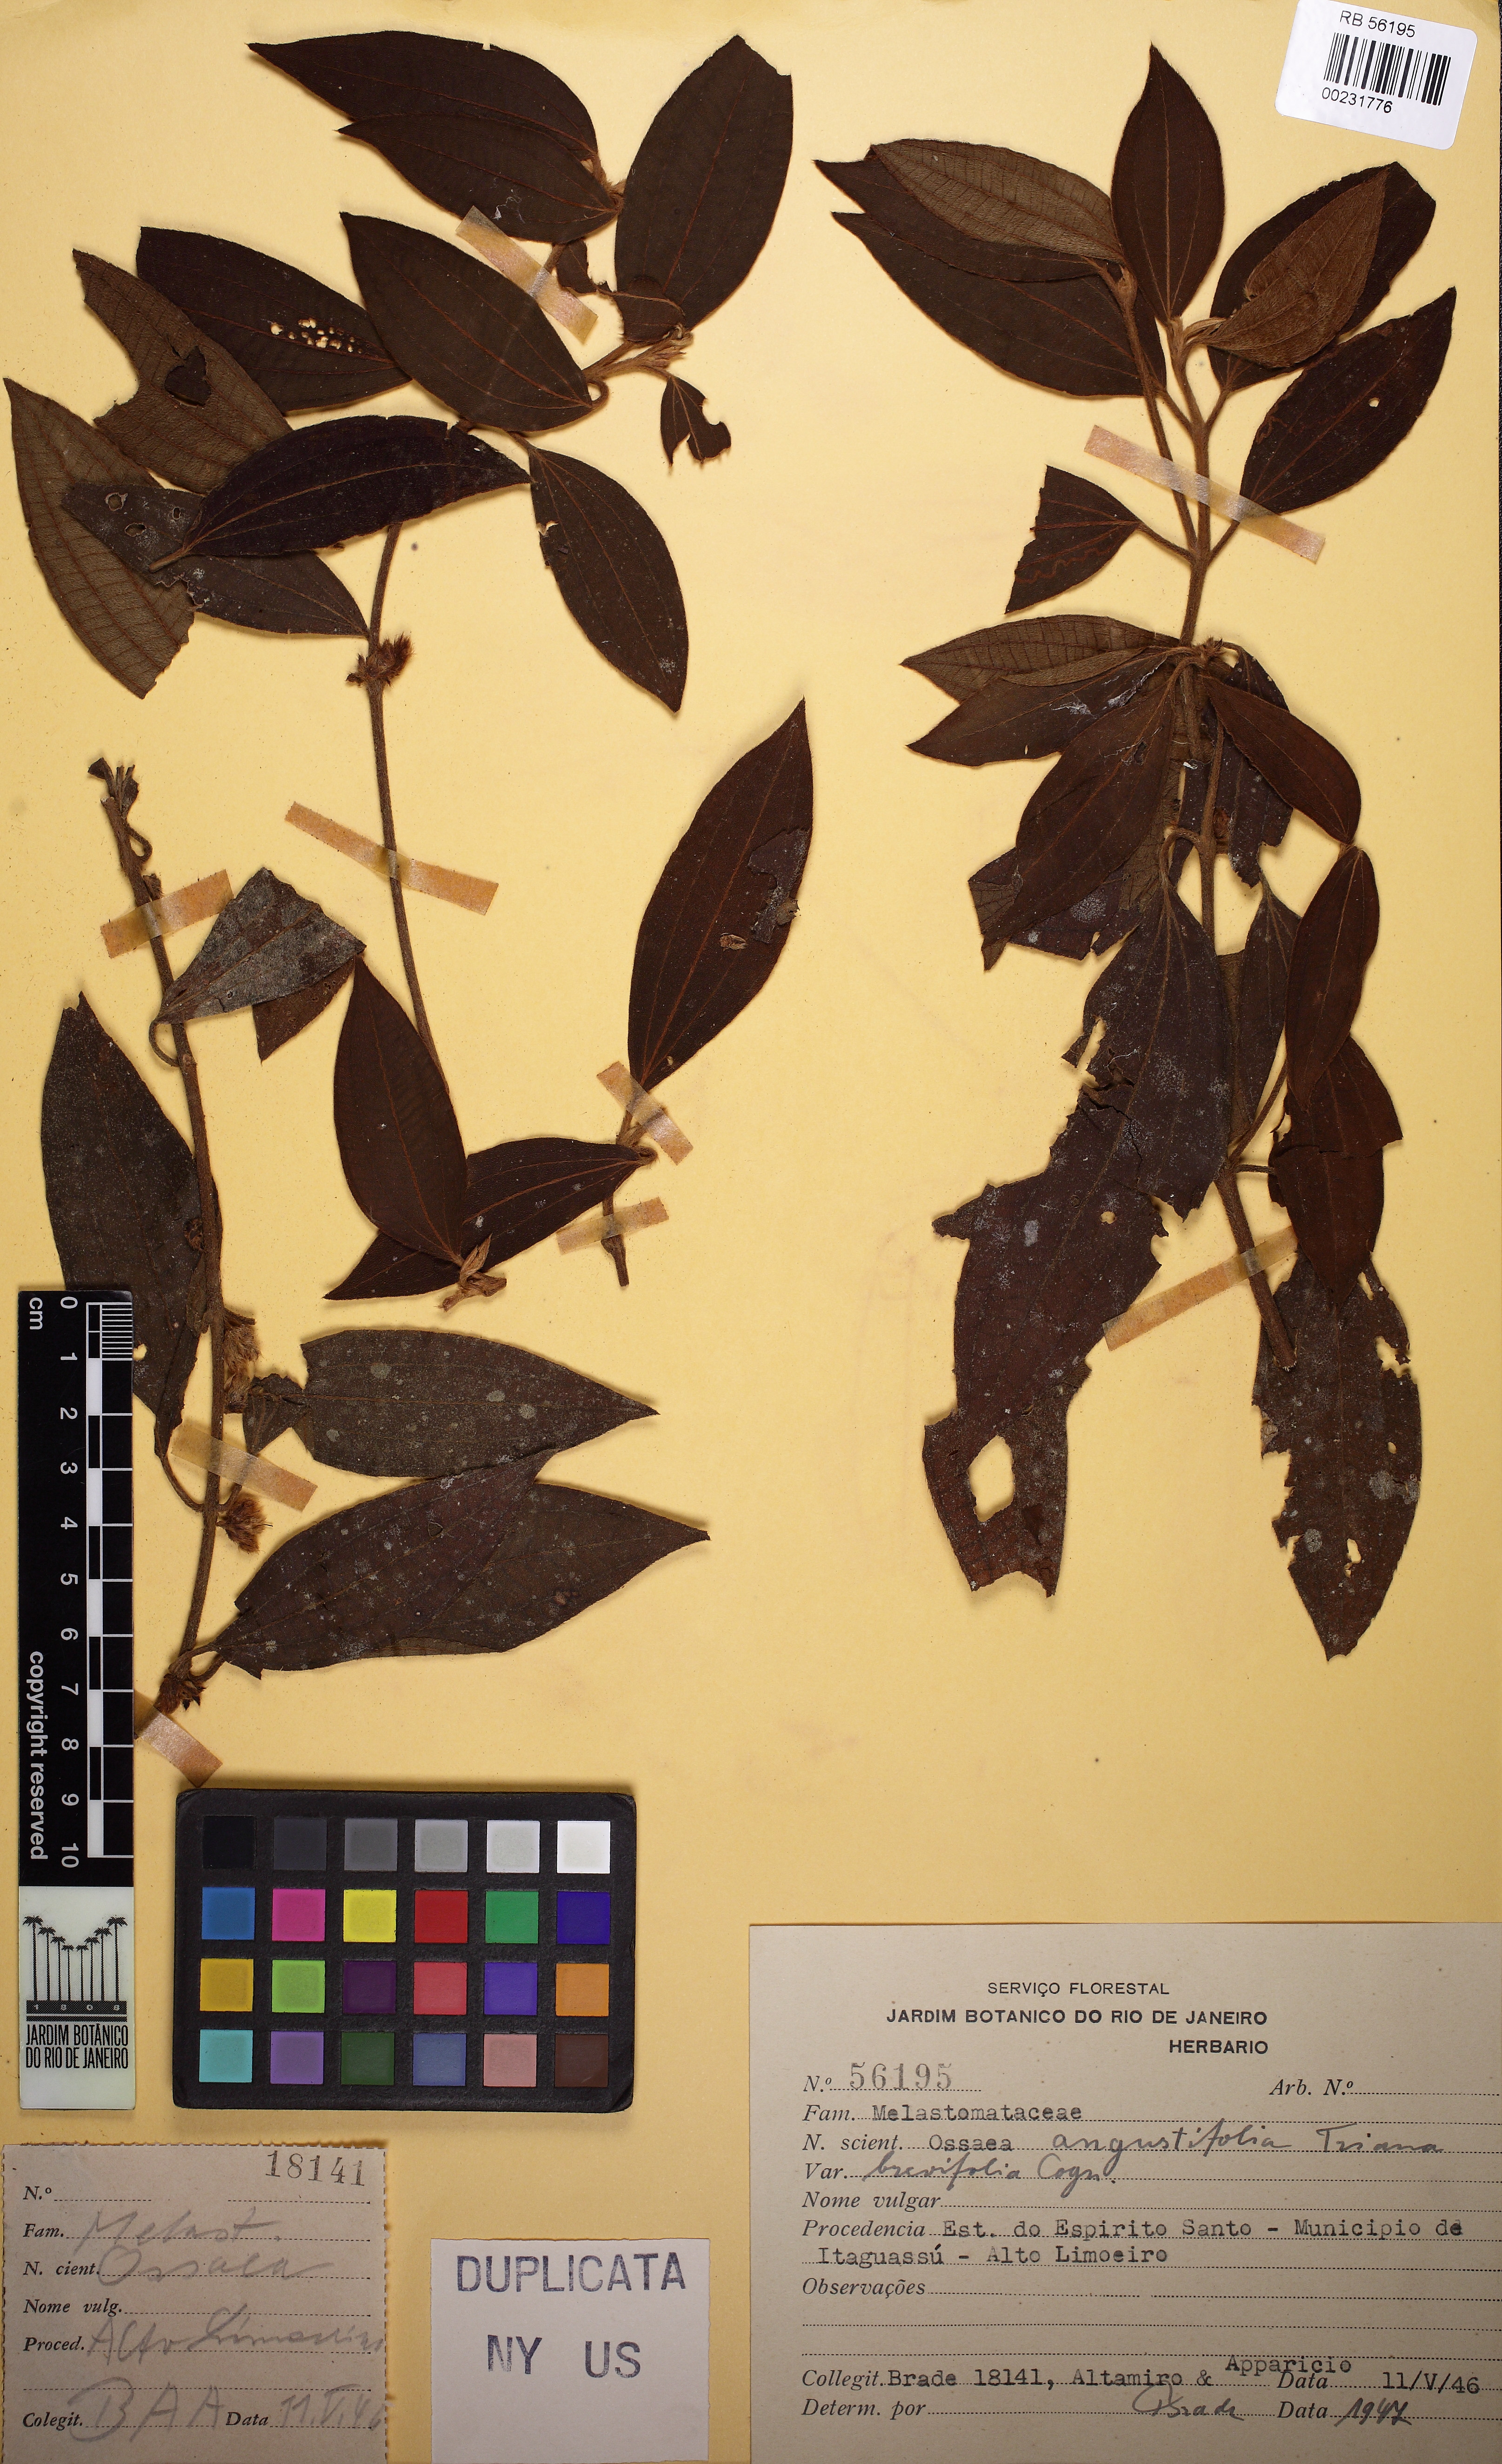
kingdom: Plantae
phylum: Tracheophyta
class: Magnoliopsida
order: Myrtales
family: Melastomataceae
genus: Miconia
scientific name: Miconia amygdaloides
